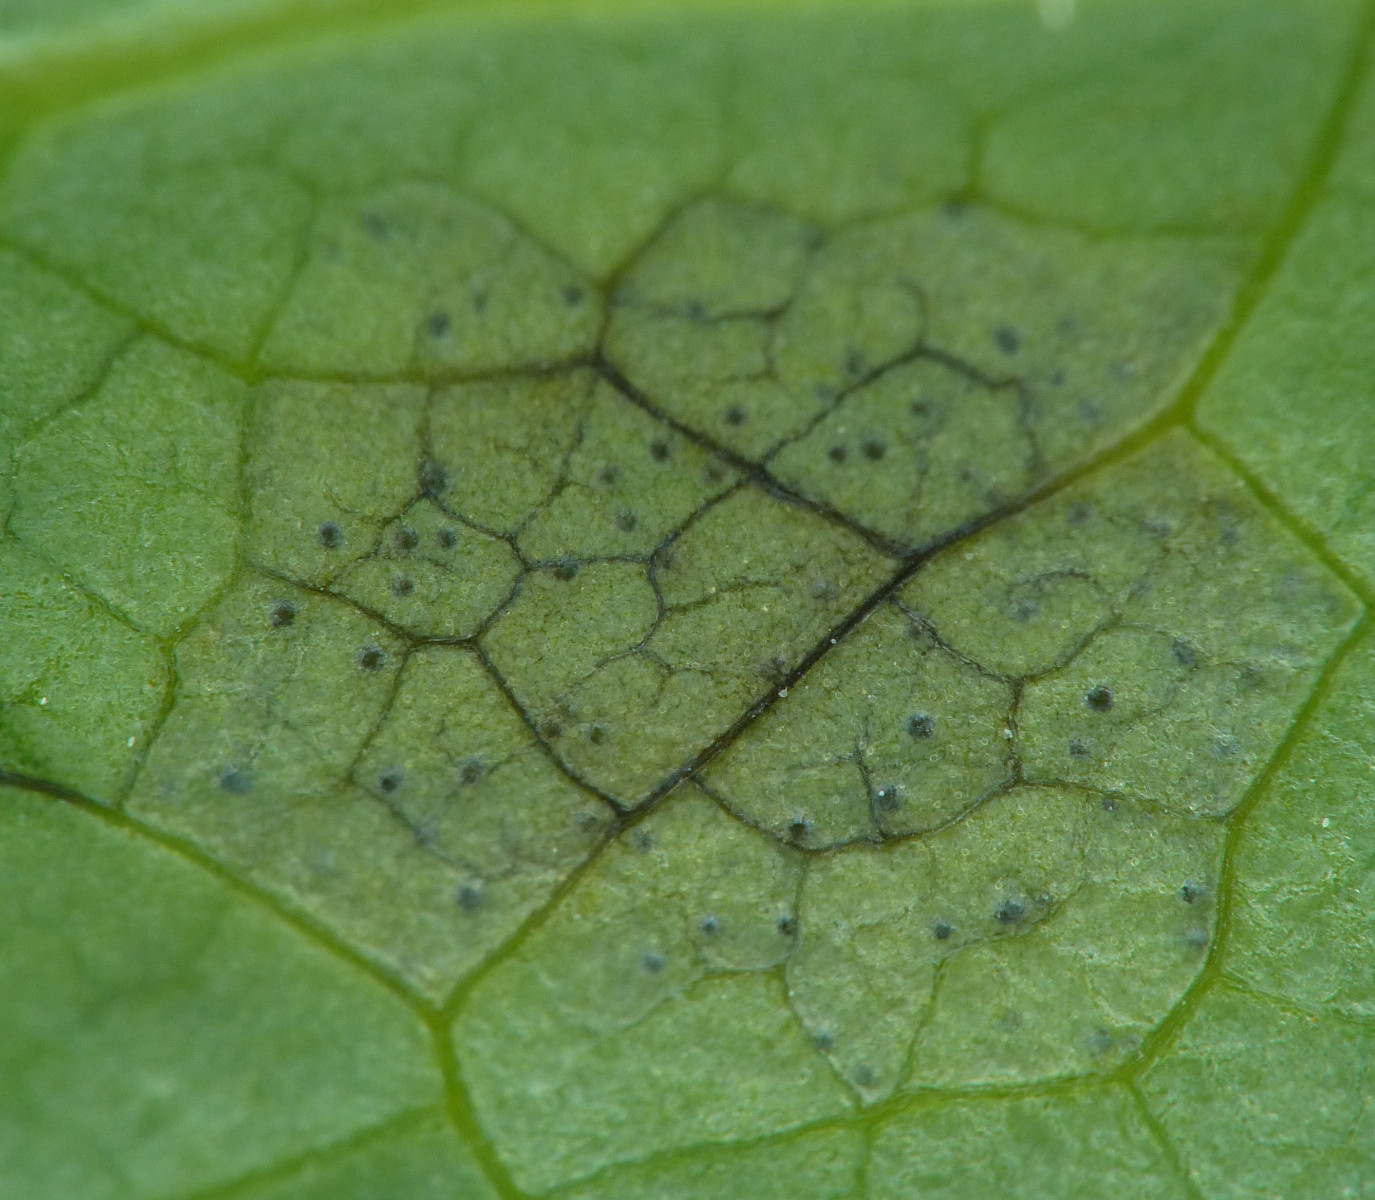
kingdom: Fungi
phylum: Ascomycota
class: Dothideomycetes
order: Mycosphaerellales
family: Mycosphaerellaceae
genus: Septoria
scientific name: Septoria chelidonii
